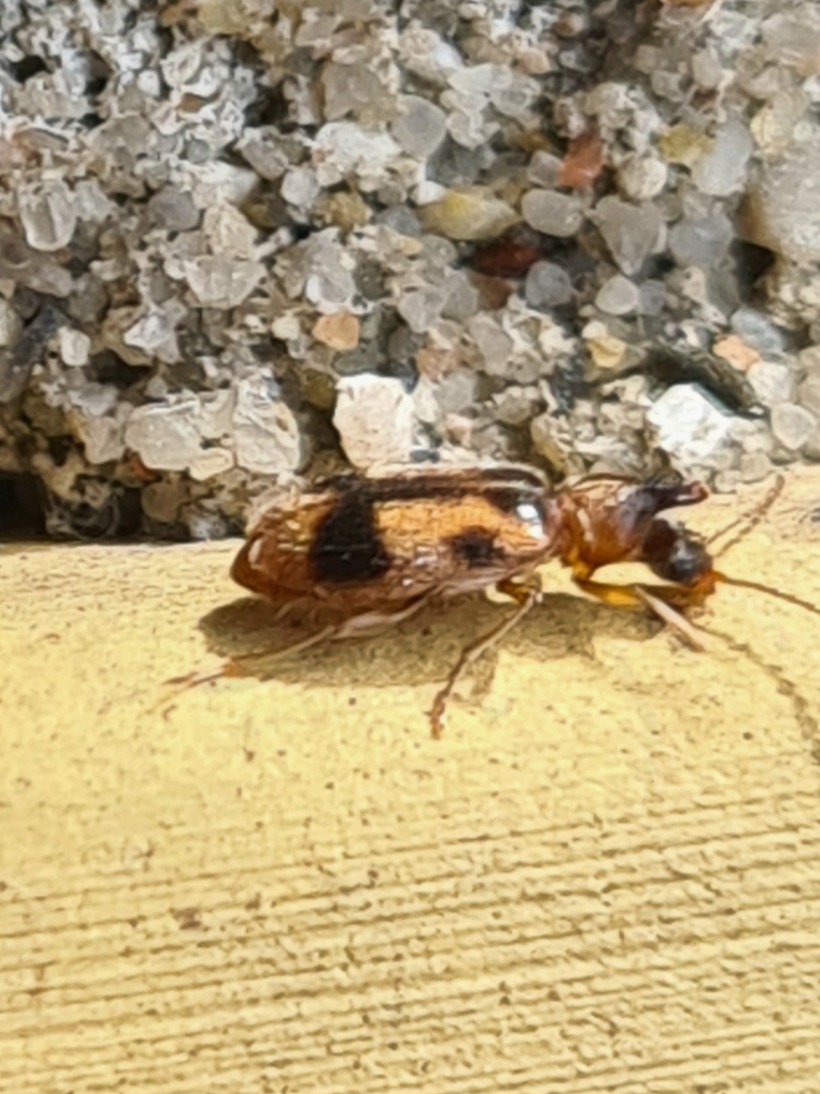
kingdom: Animalia
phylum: Arthropoda
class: Insecta
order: Coleoptera
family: Anthicidae
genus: Notoxus
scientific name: Notoxus monoceros
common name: Enhjørning
